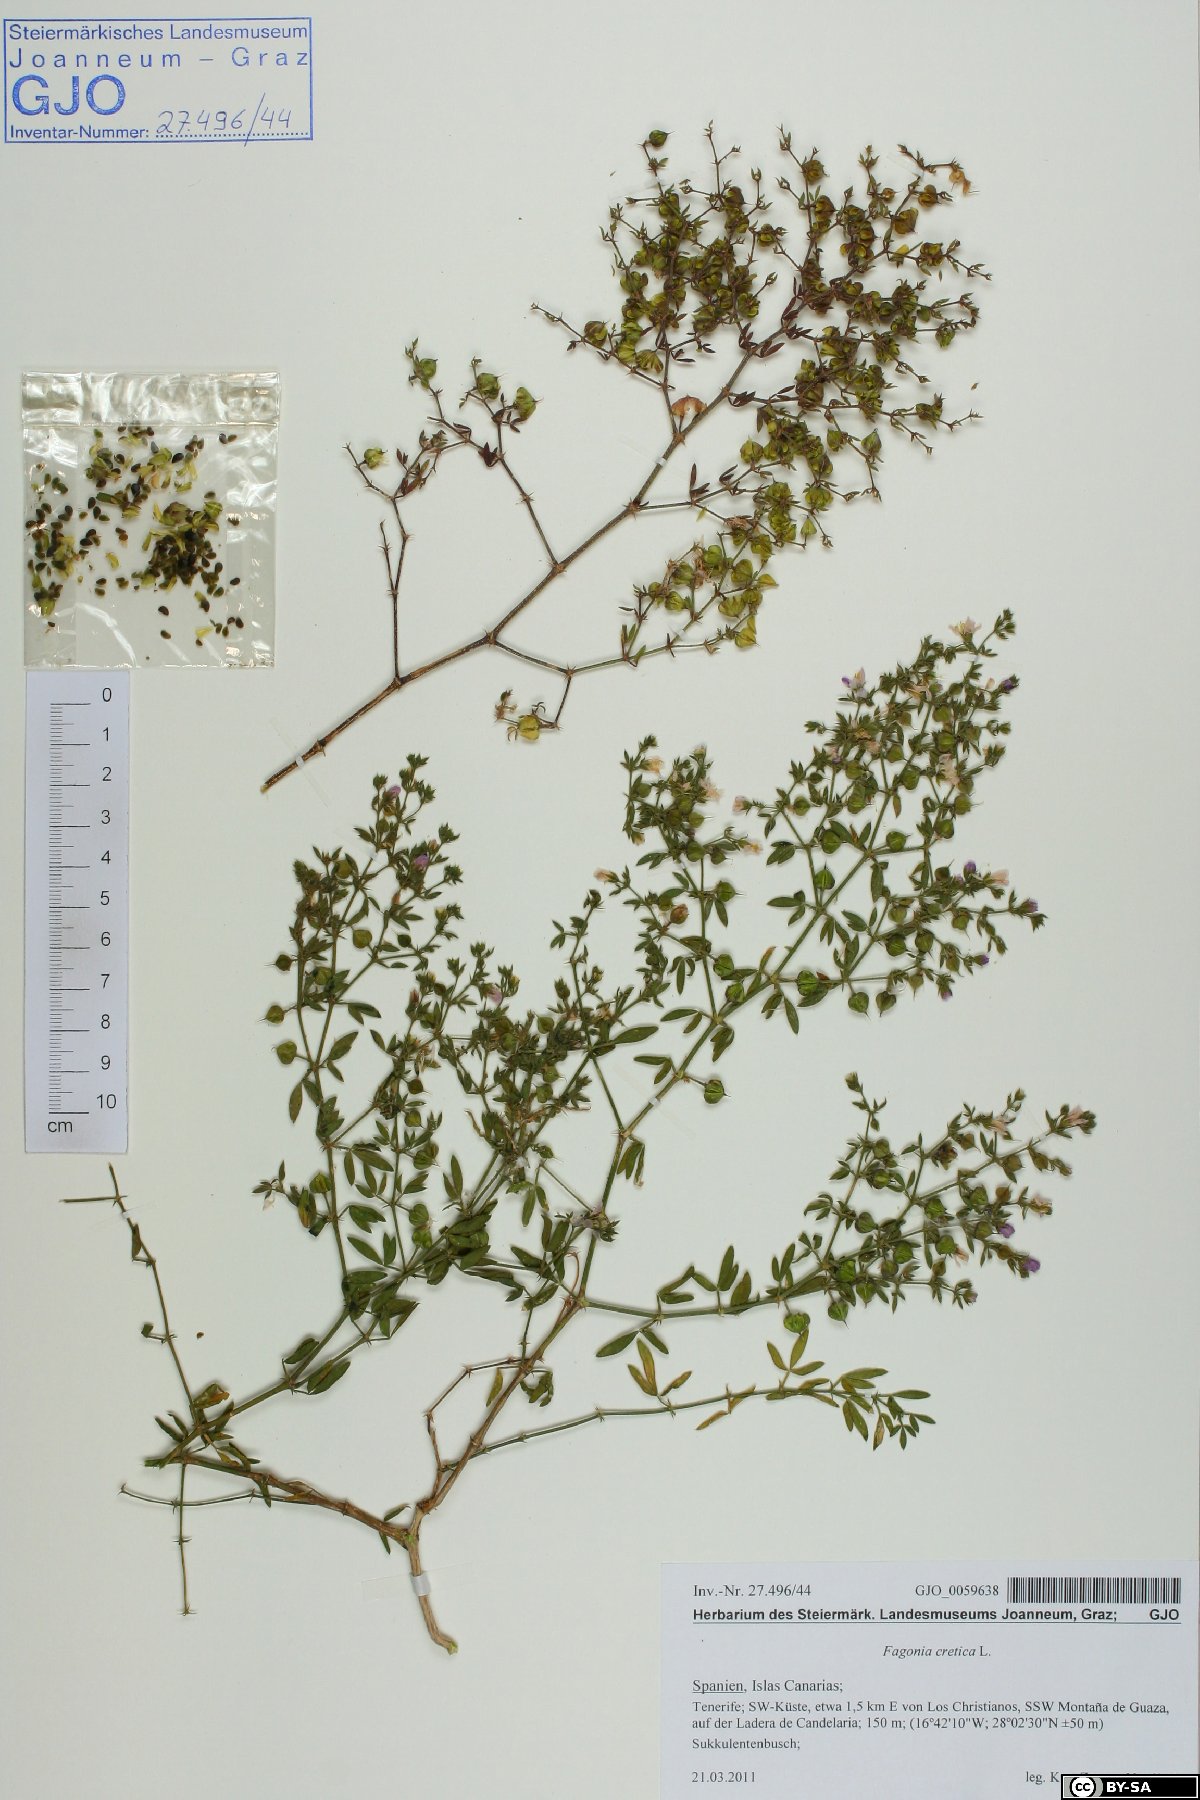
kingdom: Plantae
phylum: Tracheophyta
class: Magnoliopsida
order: Zygophyllales
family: Zygophyllaceae
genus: Fagonia
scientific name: Fagonia cretica
